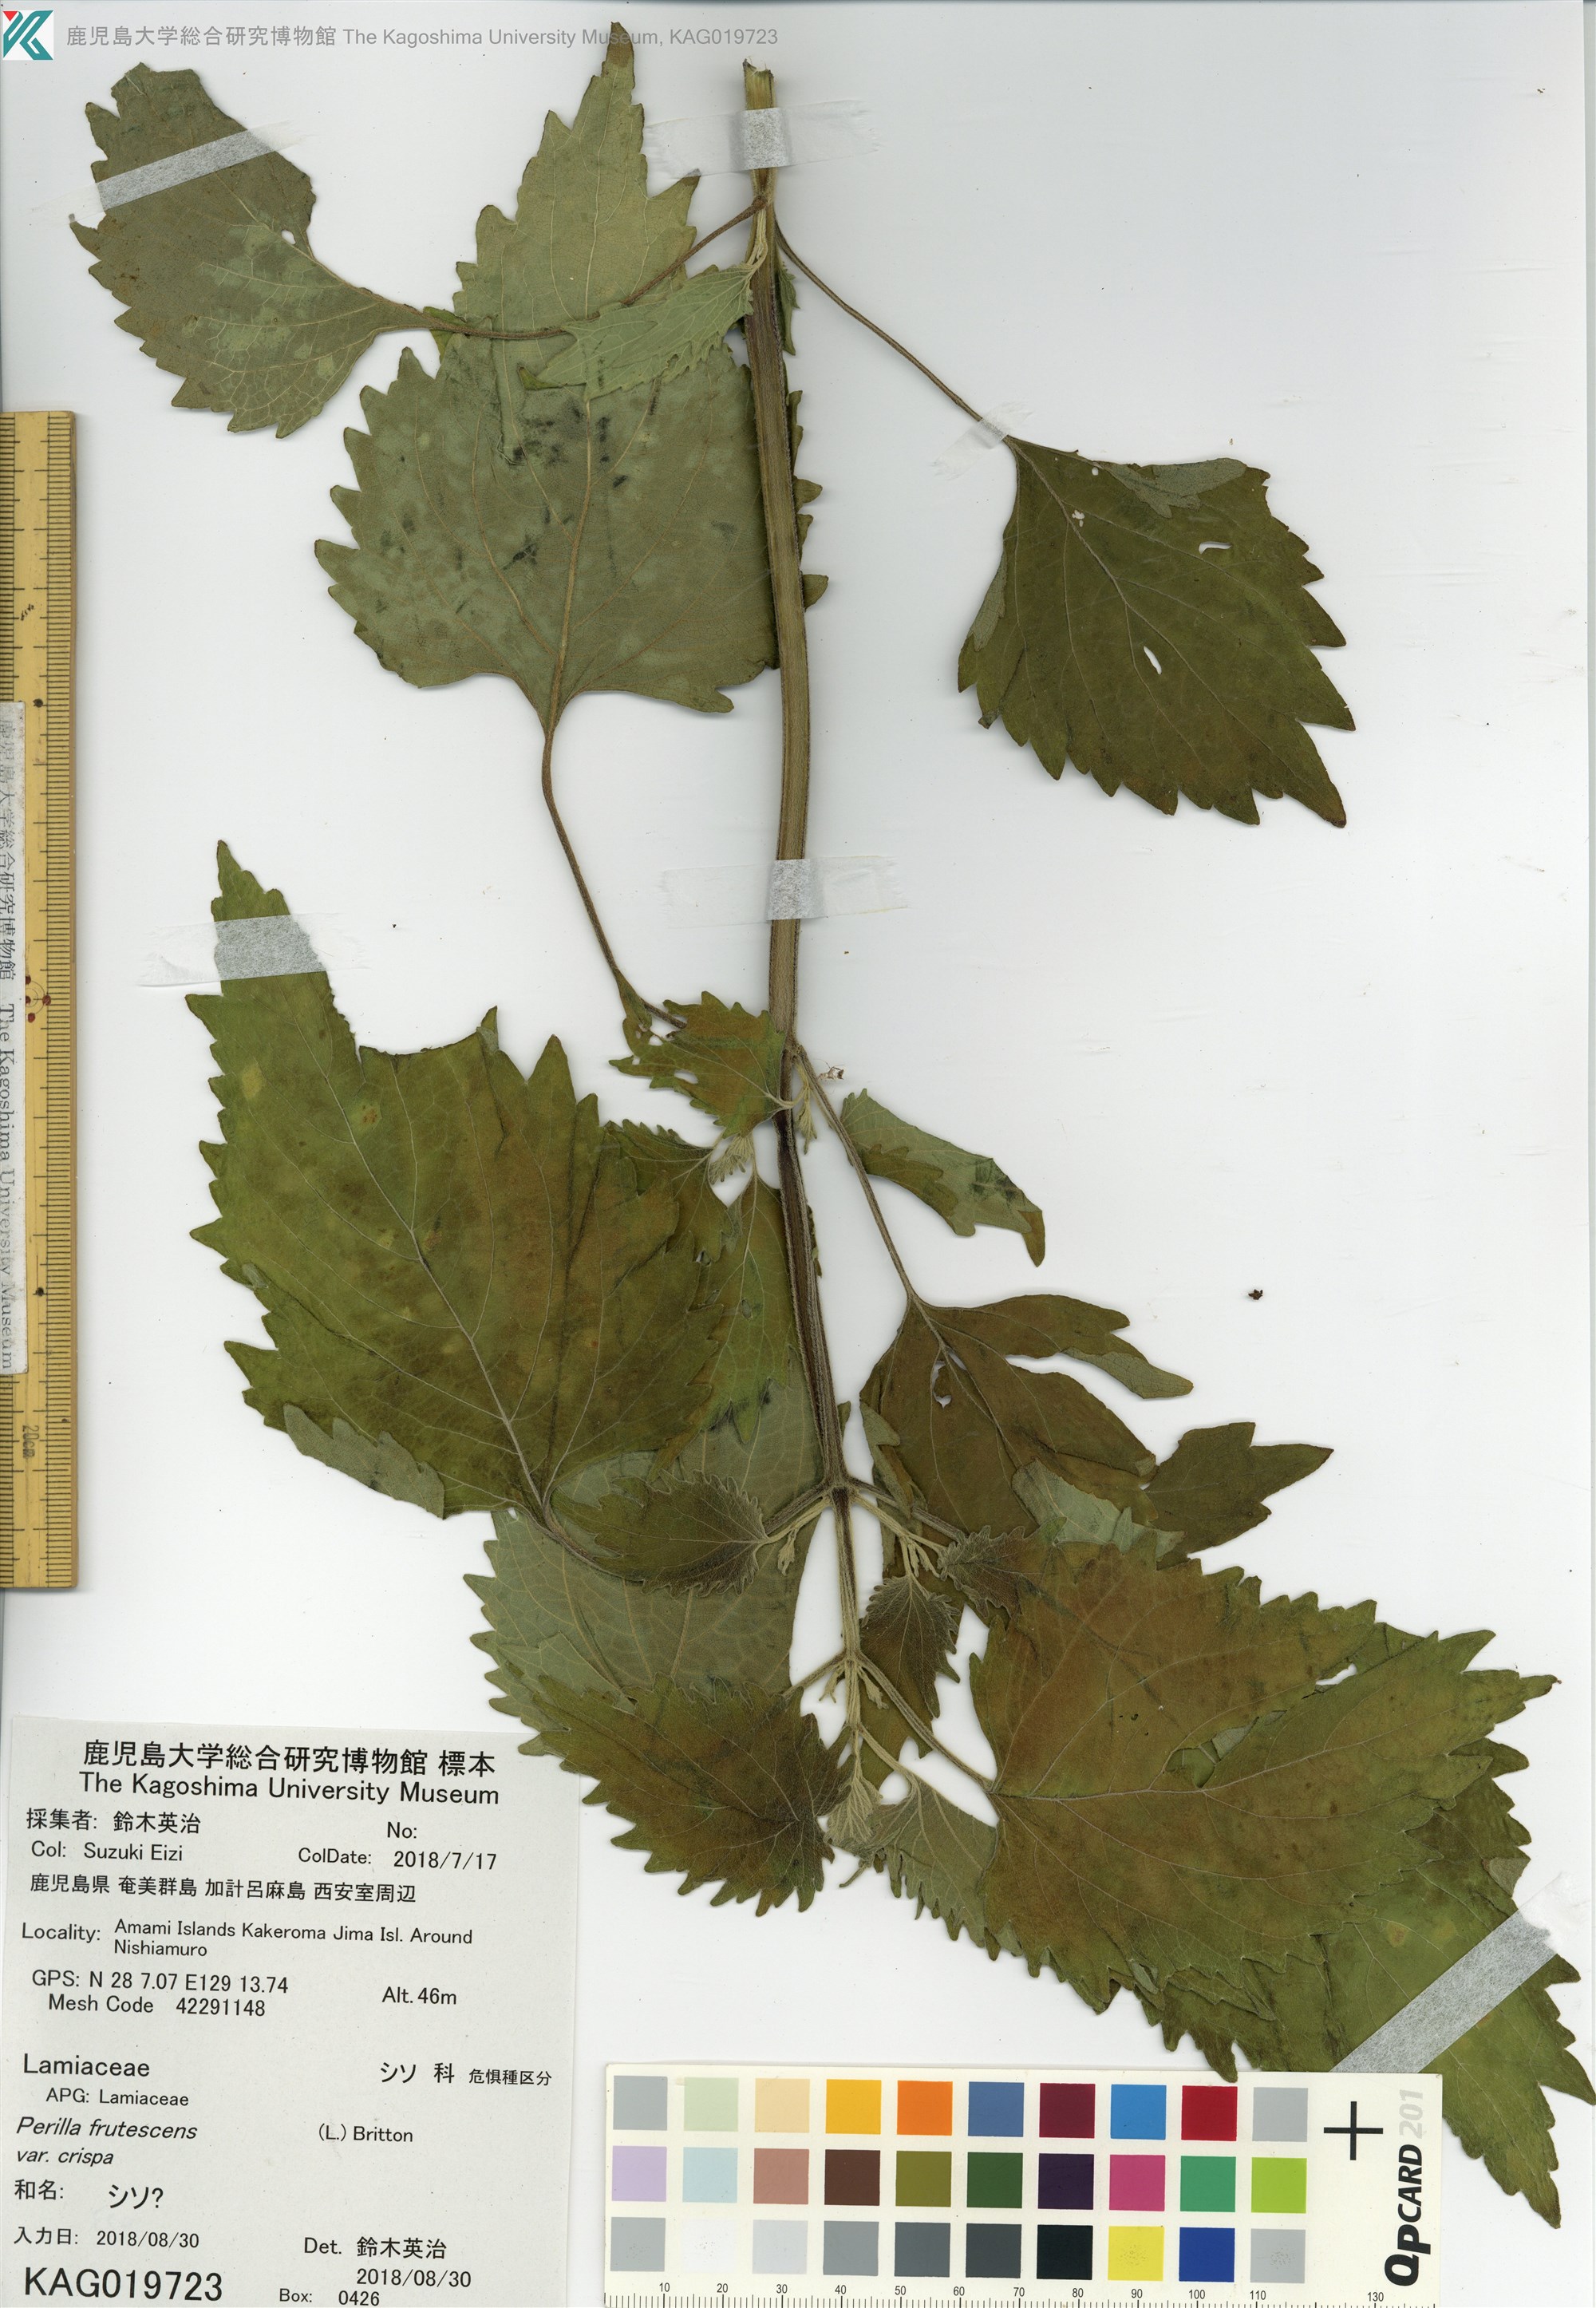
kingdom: Plantae
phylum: Tracheophyta
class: Magnoliopsida
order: Lamiales
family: Lamiaceae
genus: Perilla
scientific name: Perilla frutescens
